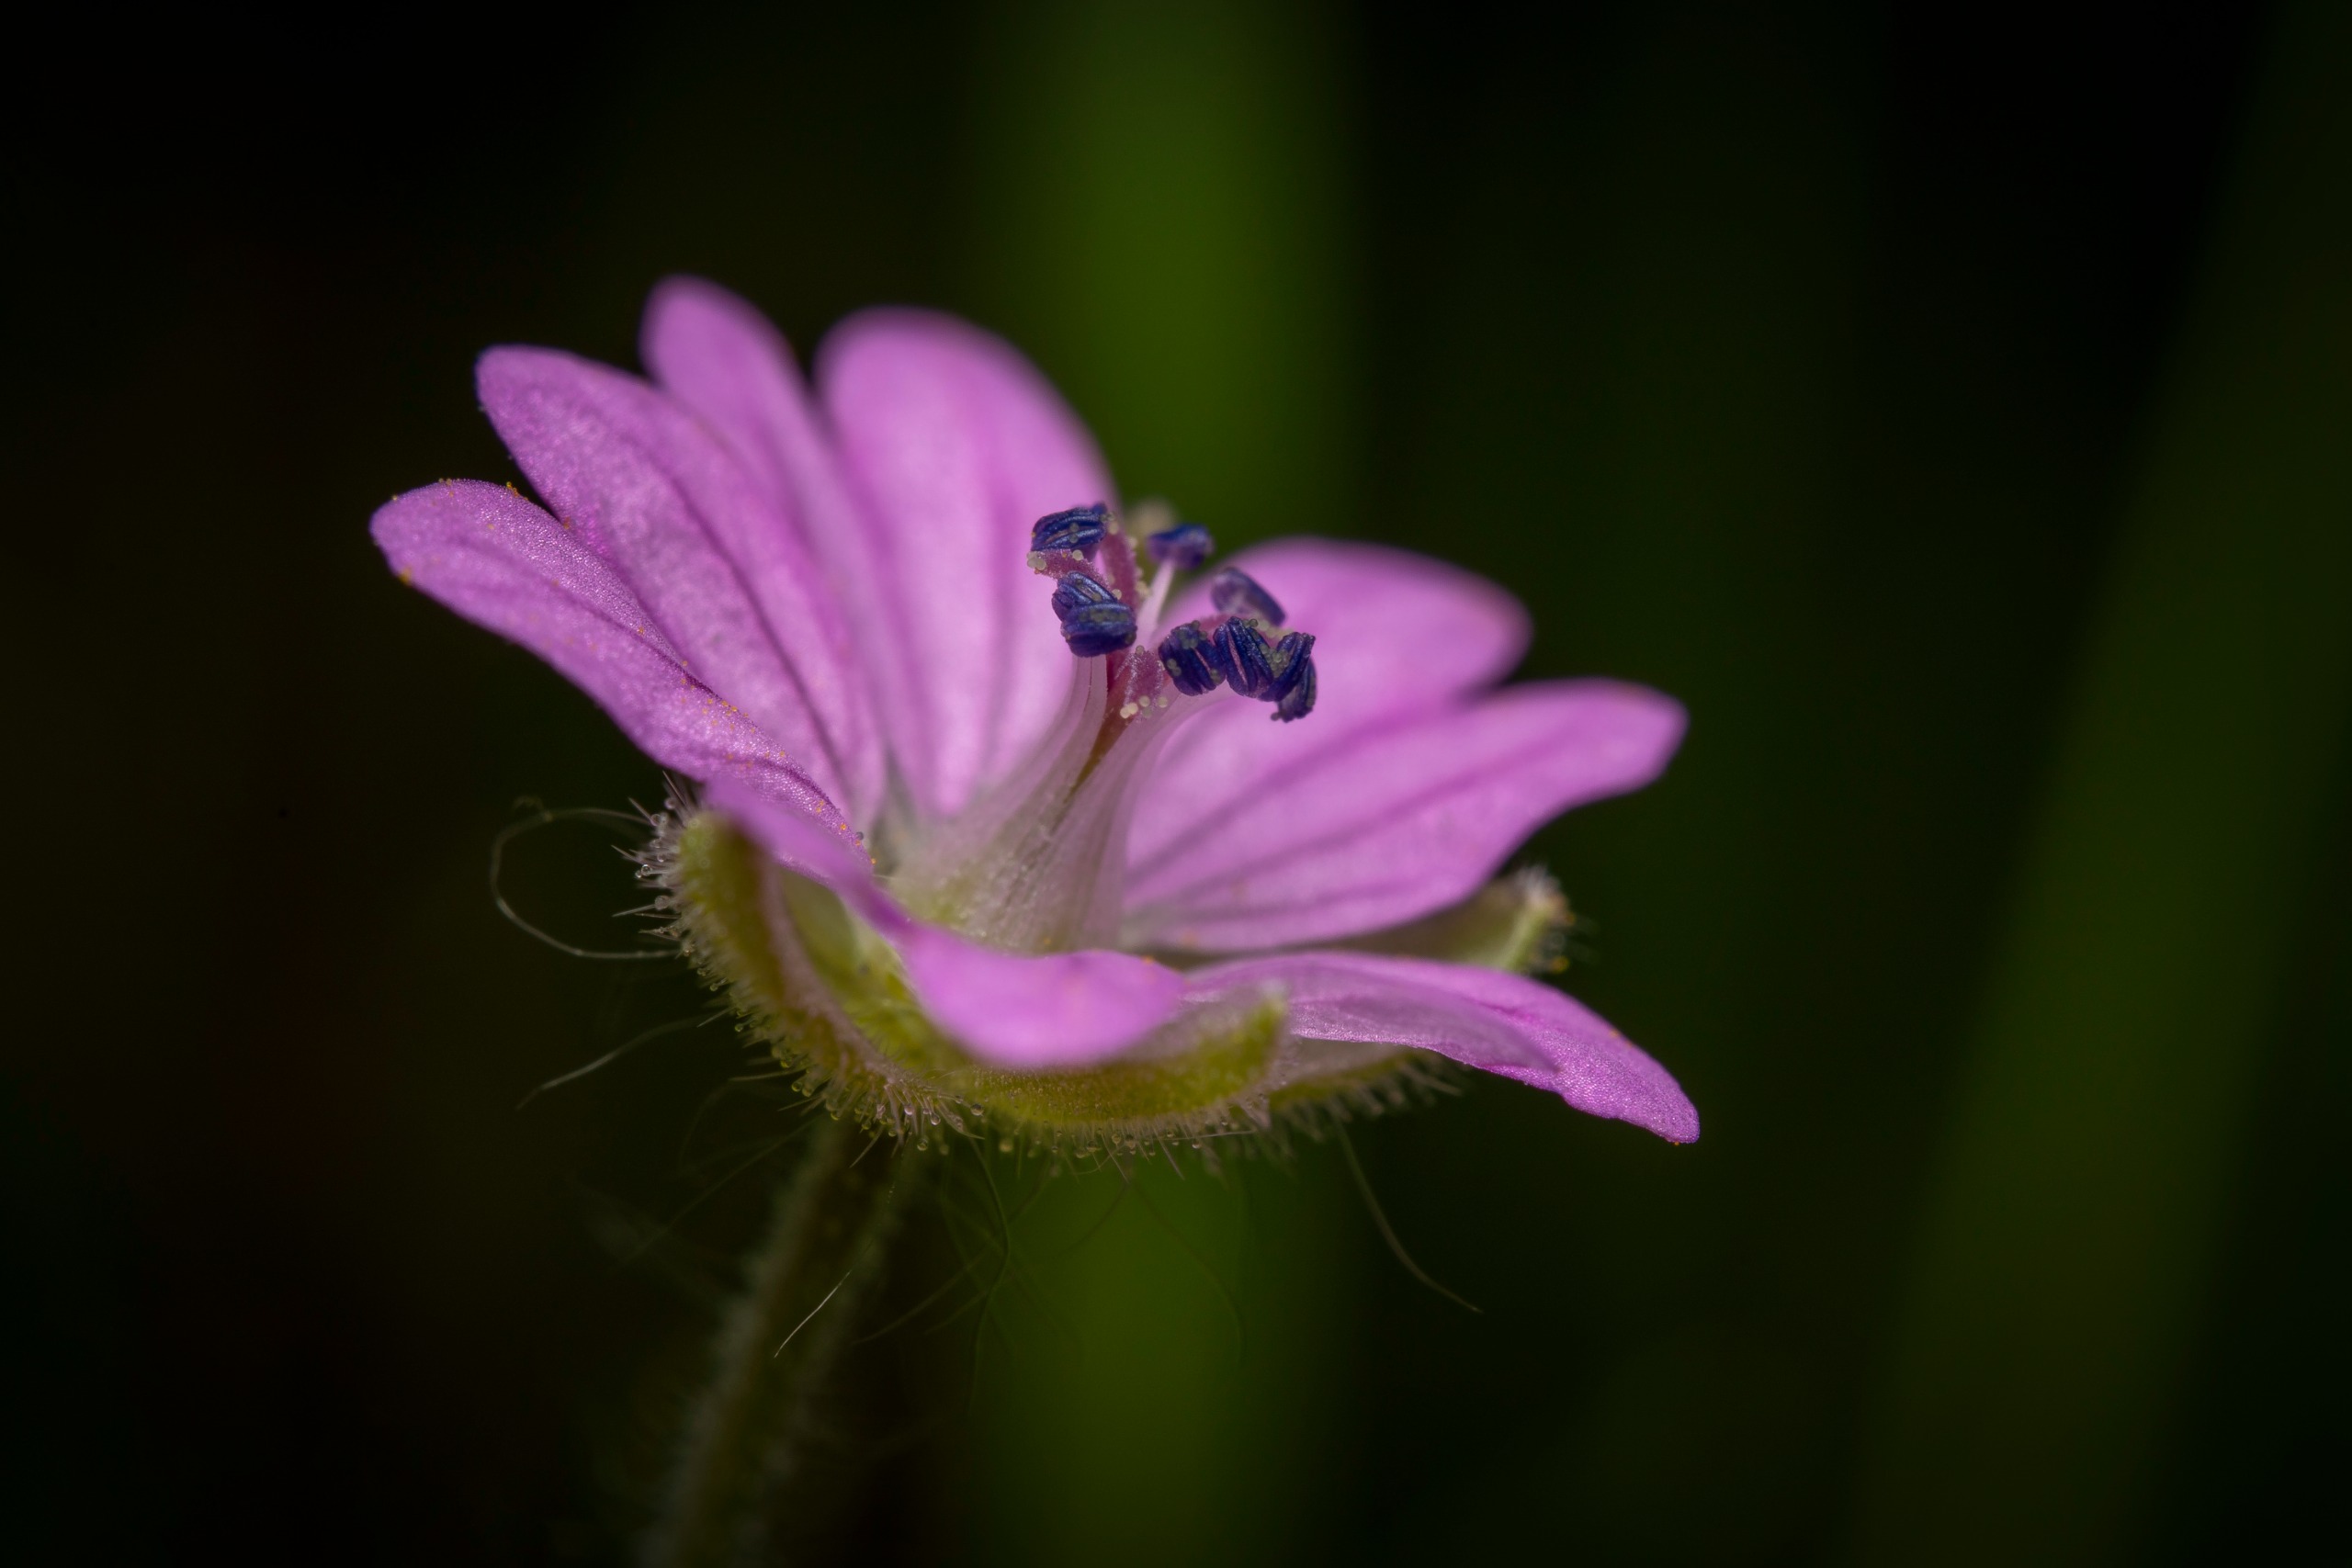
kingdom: Plantae
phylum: Tracheophyta
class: Magnoliopsida
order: Geraniales
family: Geraniaceae
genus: Geranium
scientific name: Geranium molle
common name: Blød storkenæb
